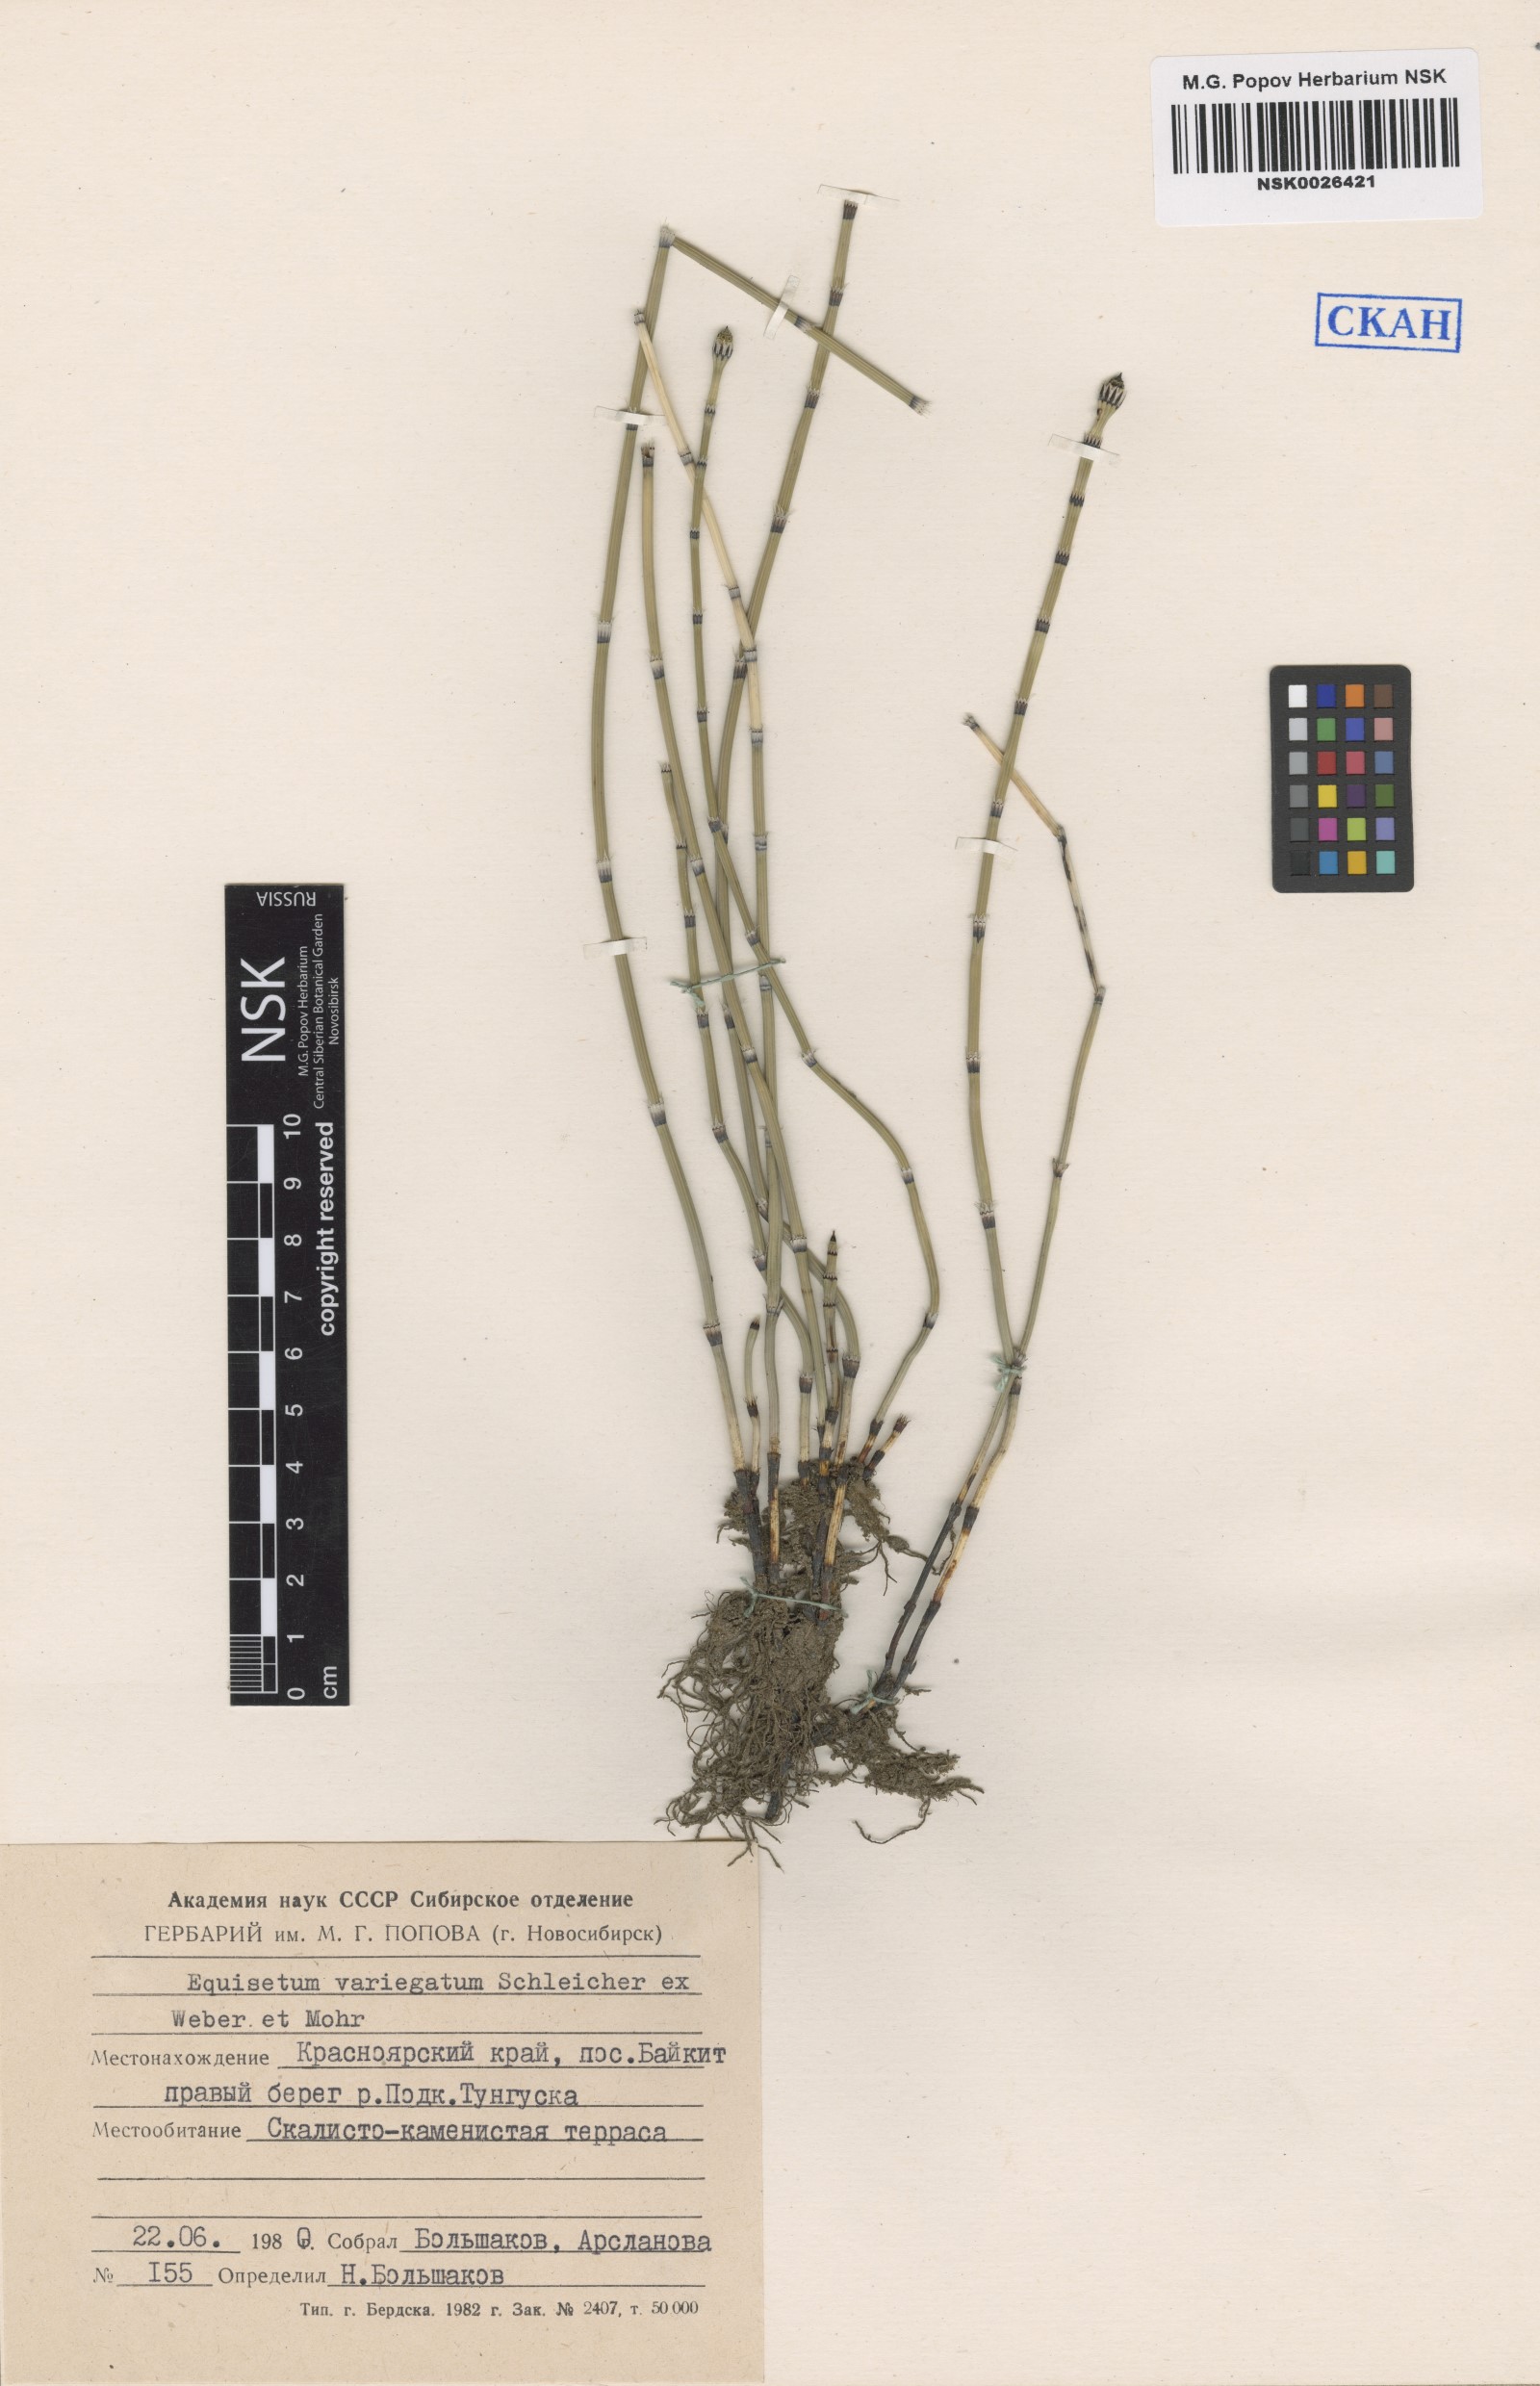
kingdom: Plantae
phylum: Tracheophyta
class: Polypodiopsida
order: Equisetales
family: Equisetaceae
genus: Equisetum
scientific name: Equisetum variegatum
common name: Variegated horsetail
